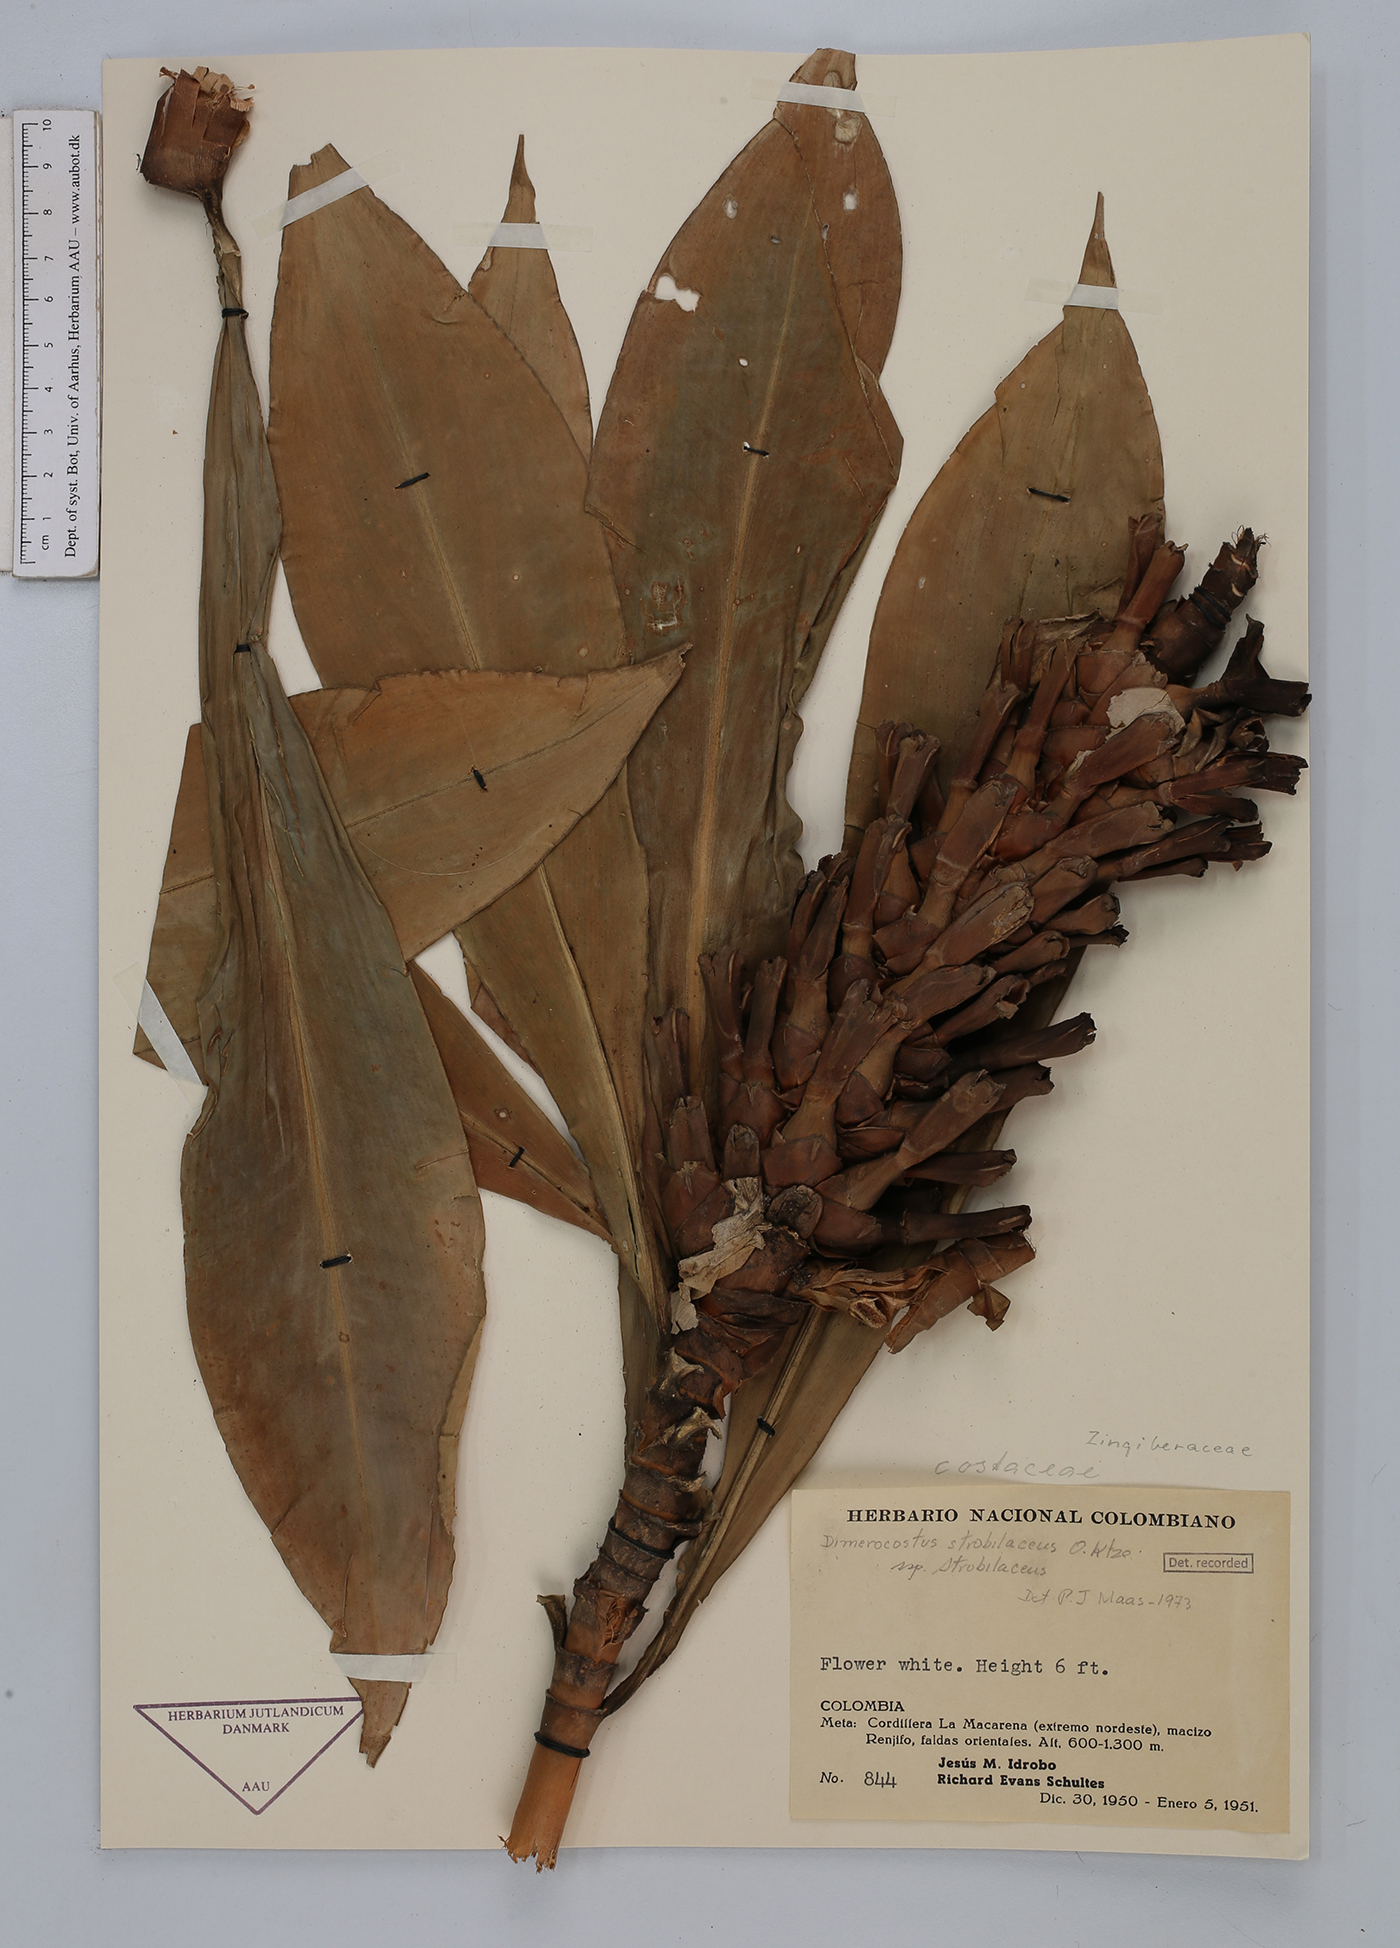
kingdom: Plantae
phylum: Tracheophyta
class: Liliopsida
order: Zingiberales
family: Costaceae
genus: Dimerocostus
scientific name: Dimerocostus strobilaceus
